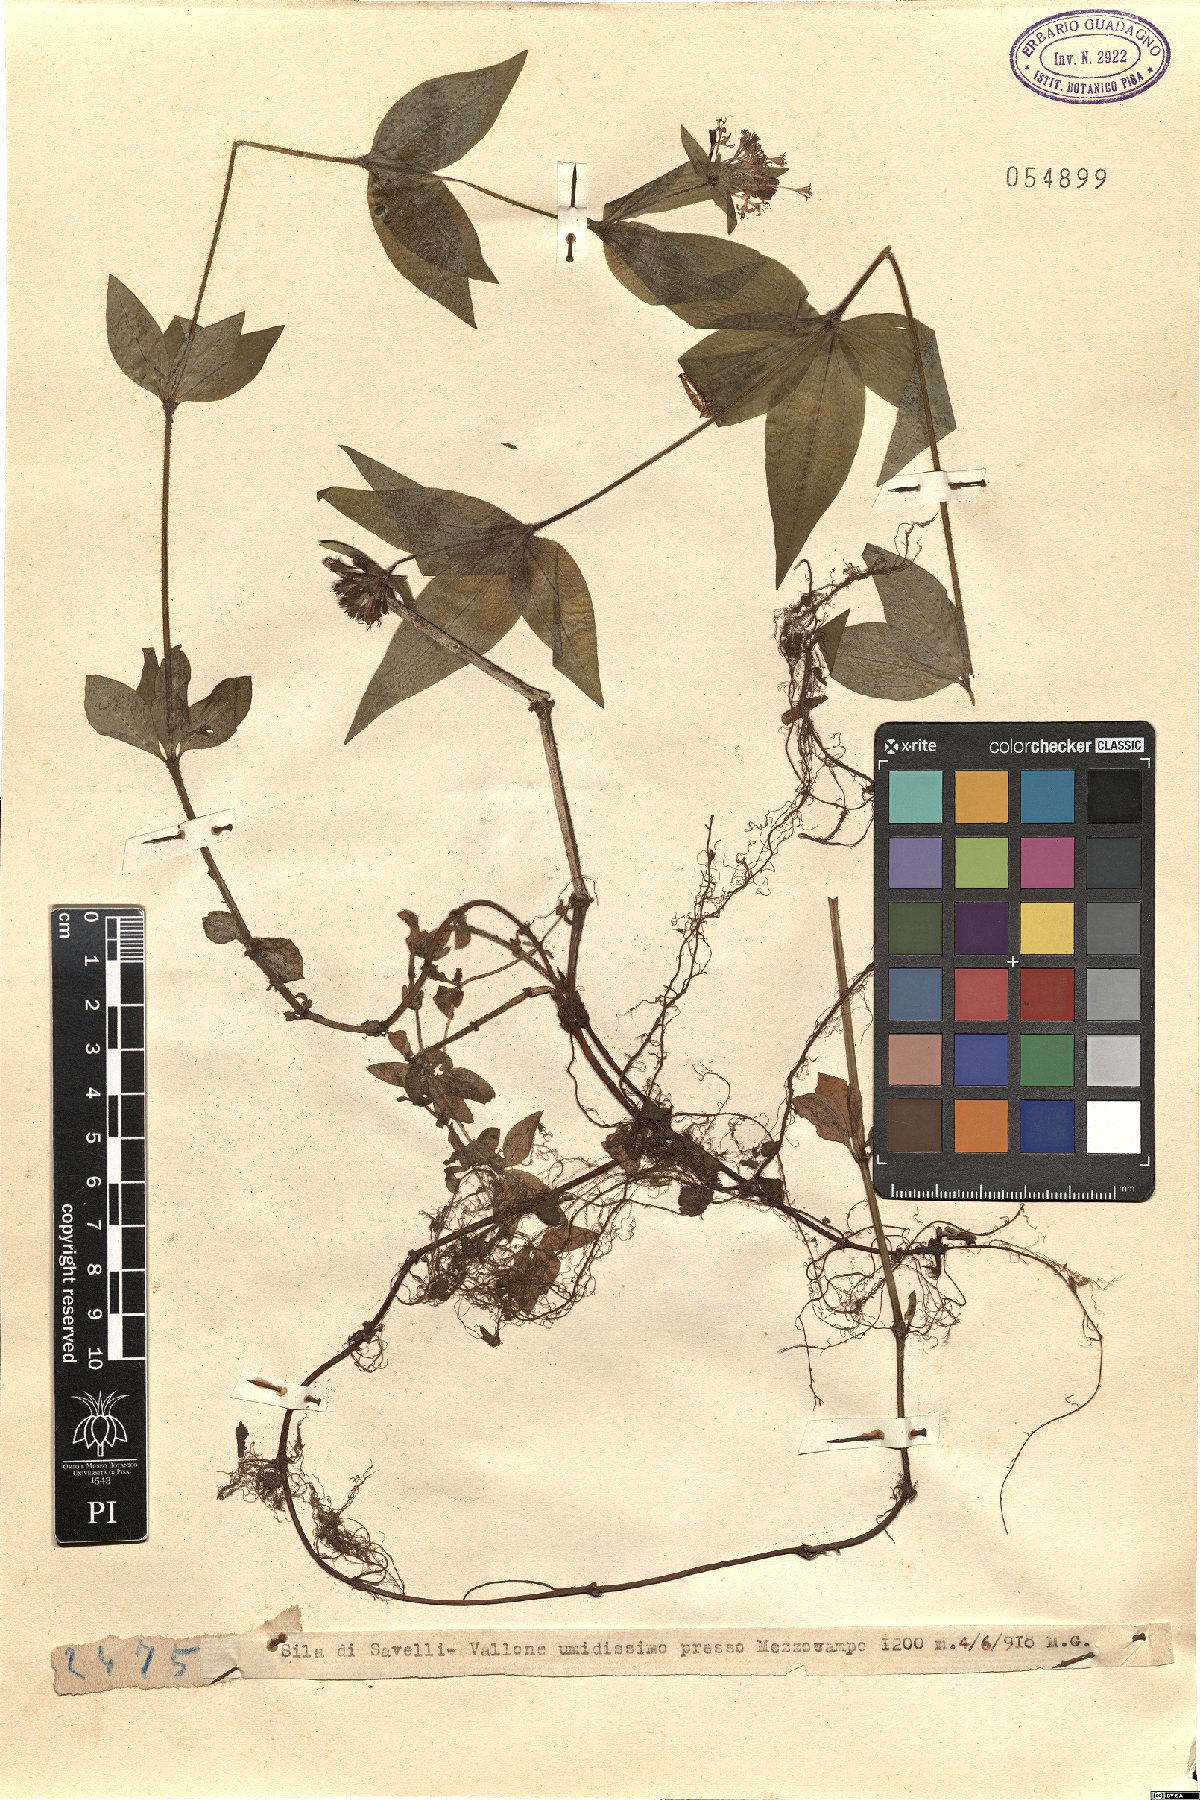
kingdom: Plantae
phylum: Tracheophyta
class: Magnoliopsida
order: Gentianales
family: Rubiaceae
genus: Asperula
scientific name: Asperula
